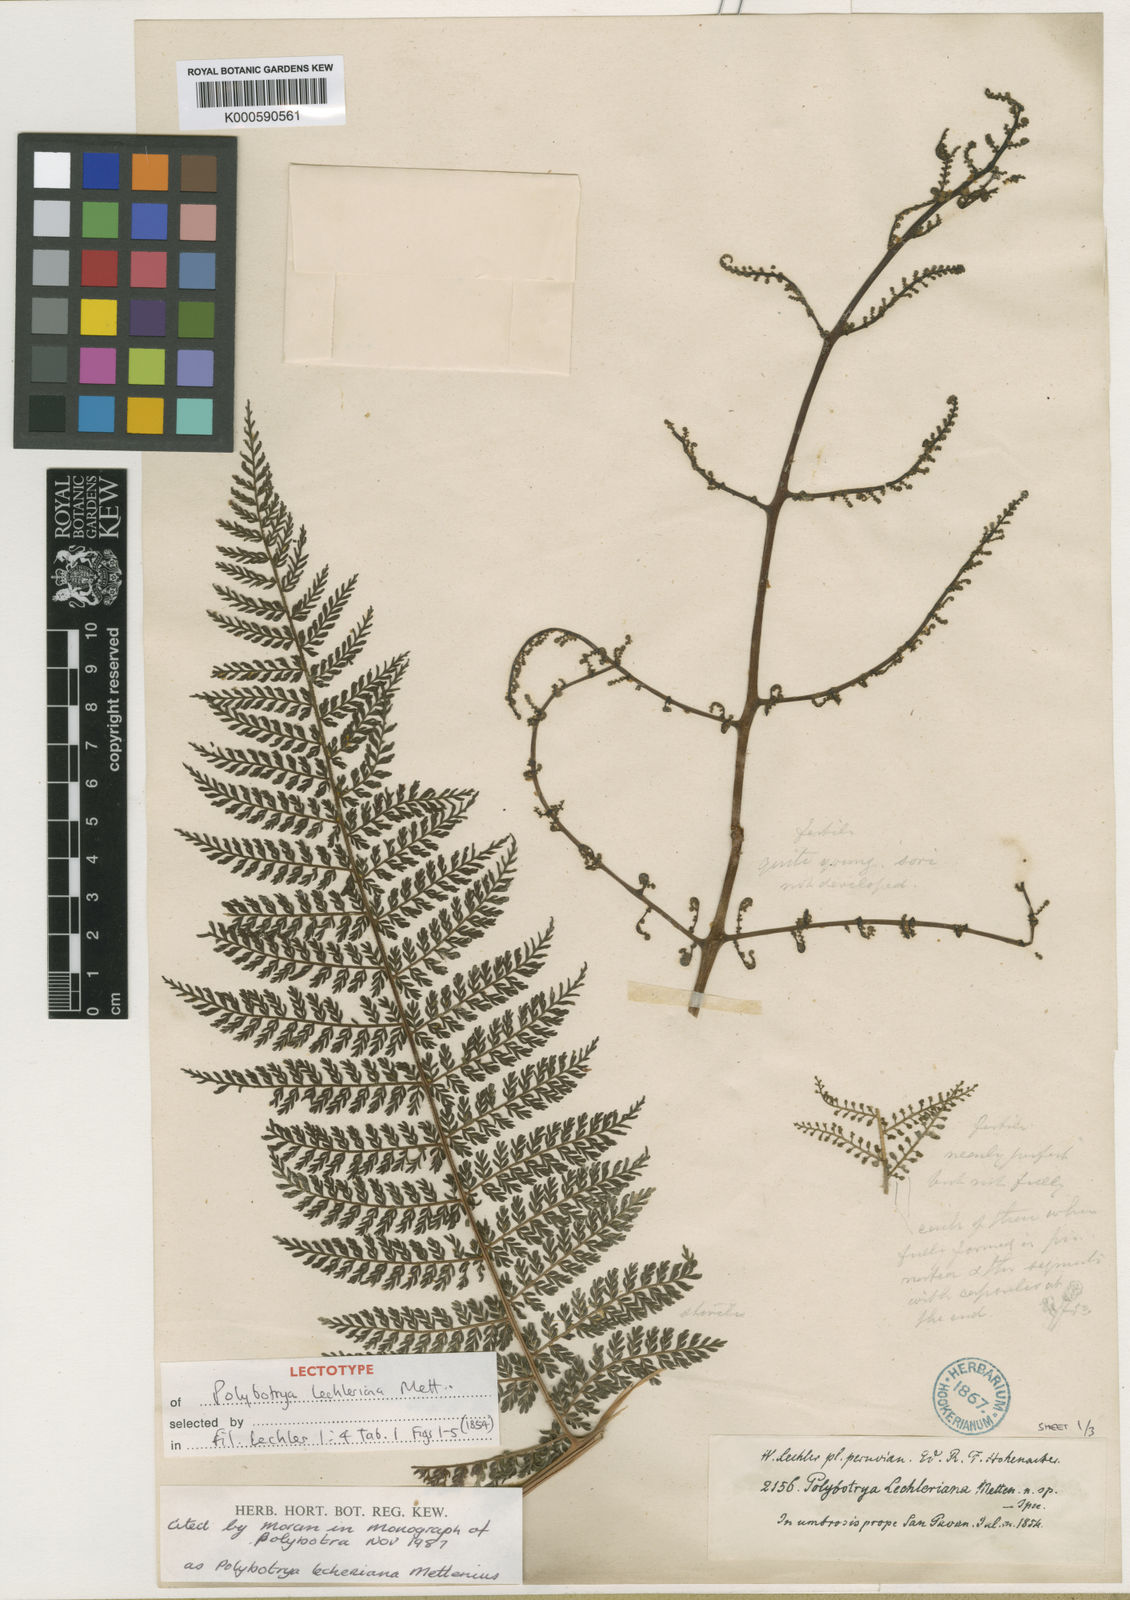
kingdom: Plantae
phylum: Tracheophyta
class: Polypodiopsida
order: Polypodiales
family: Dryopteridaceae
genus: Polybotrya
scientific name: Polybotrya lechleriana
